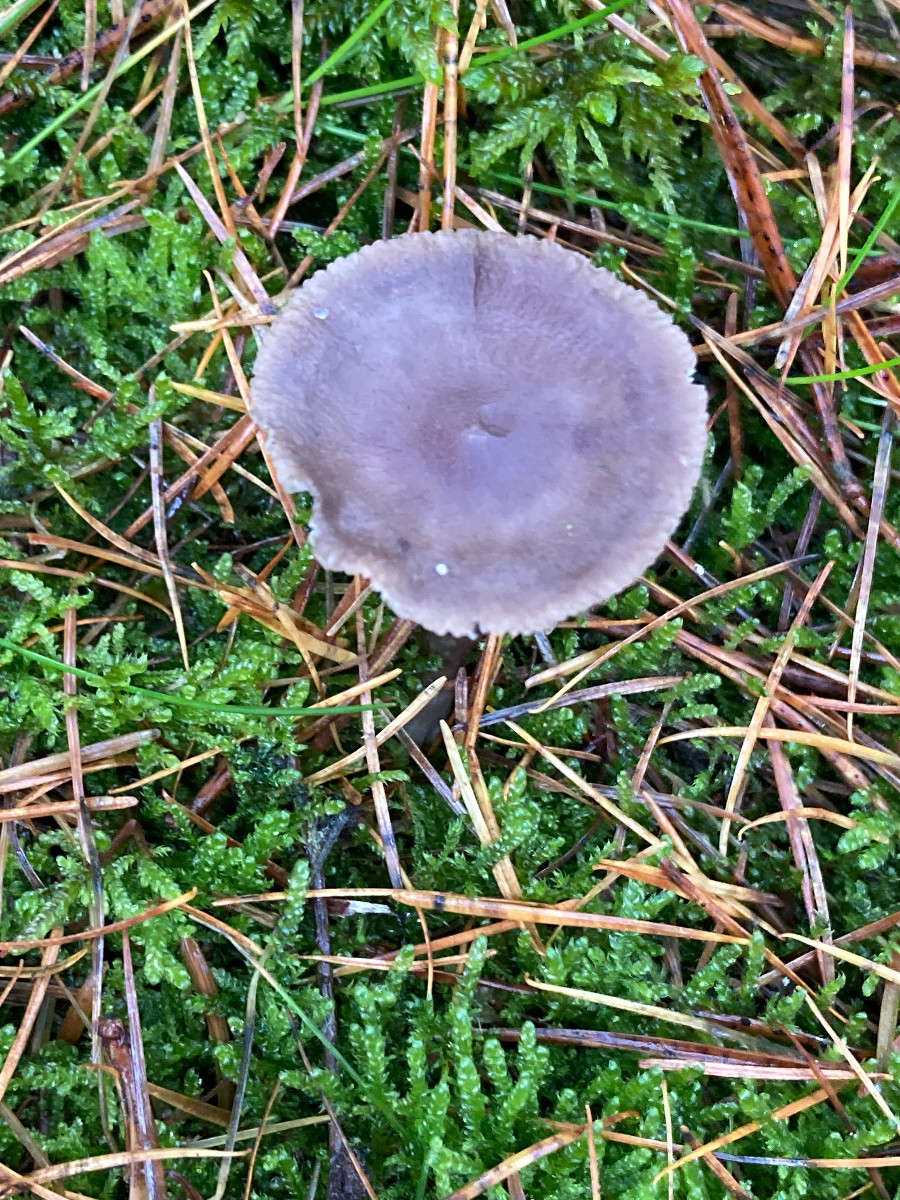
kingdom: Fungi
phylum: Basidiomycota
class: Agaricomycetes
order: Agaricales
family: Hygrophoraceae
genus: Cantharellula
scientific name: Cantharellula umbonata
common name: rødmende gaffelblad
